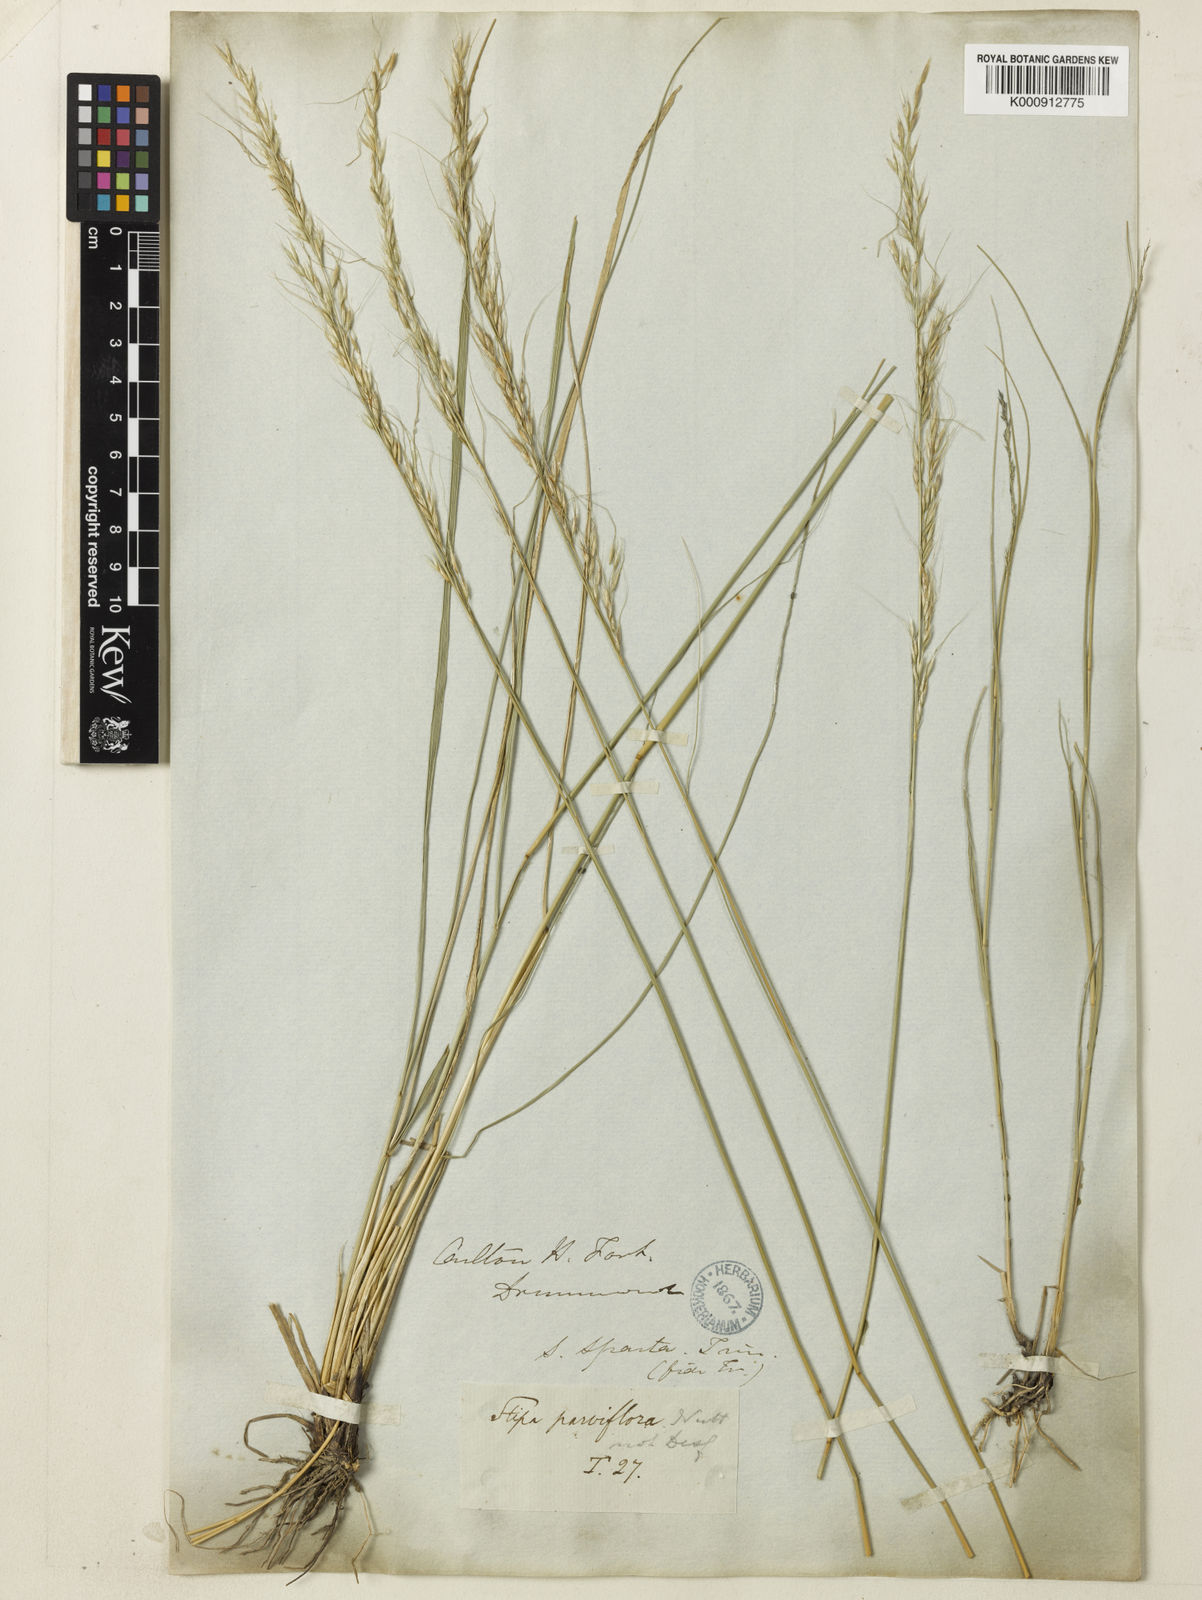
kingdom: Plantae
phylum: Tracheophyta
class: Liliopsida
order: Poales
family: Poaceae
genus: Nassella
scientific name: Nassella viridula
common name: Green needlegrass
